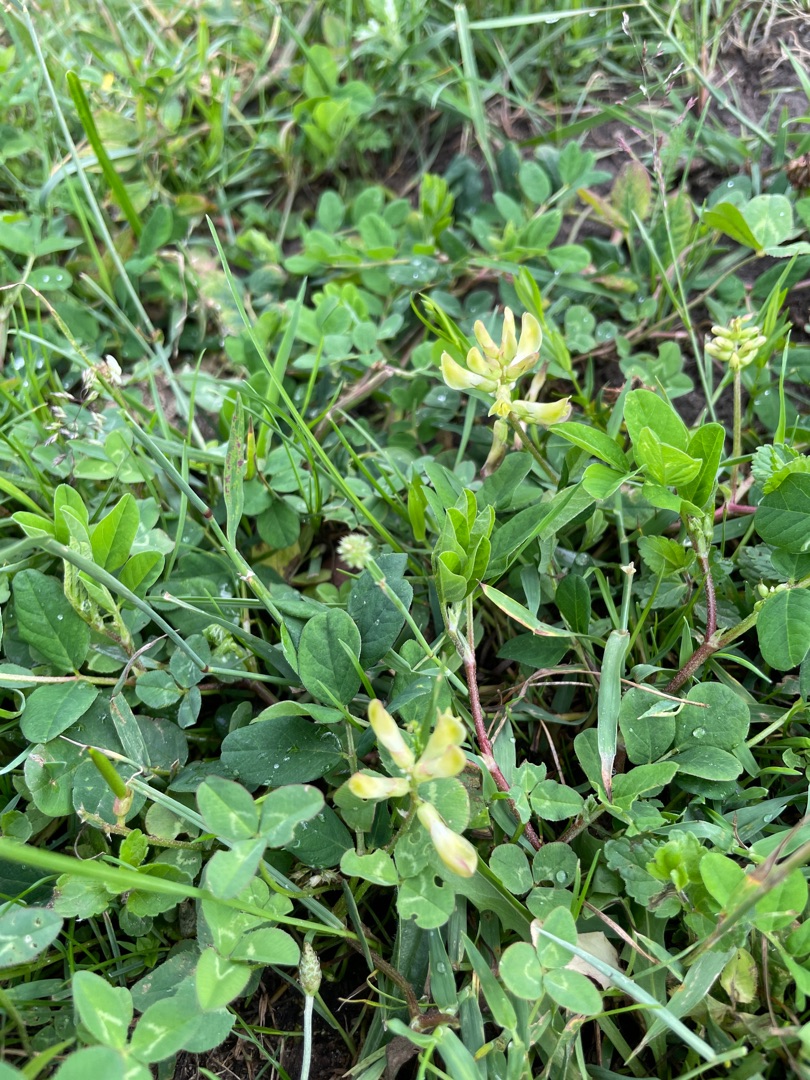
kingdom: Plantae
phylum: Tracheophyta
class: Magnoliopsida
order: Fabales
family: Fabaceae
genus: Astragalus
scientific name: Astragalus glycyphyllos
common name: Sød astragel
